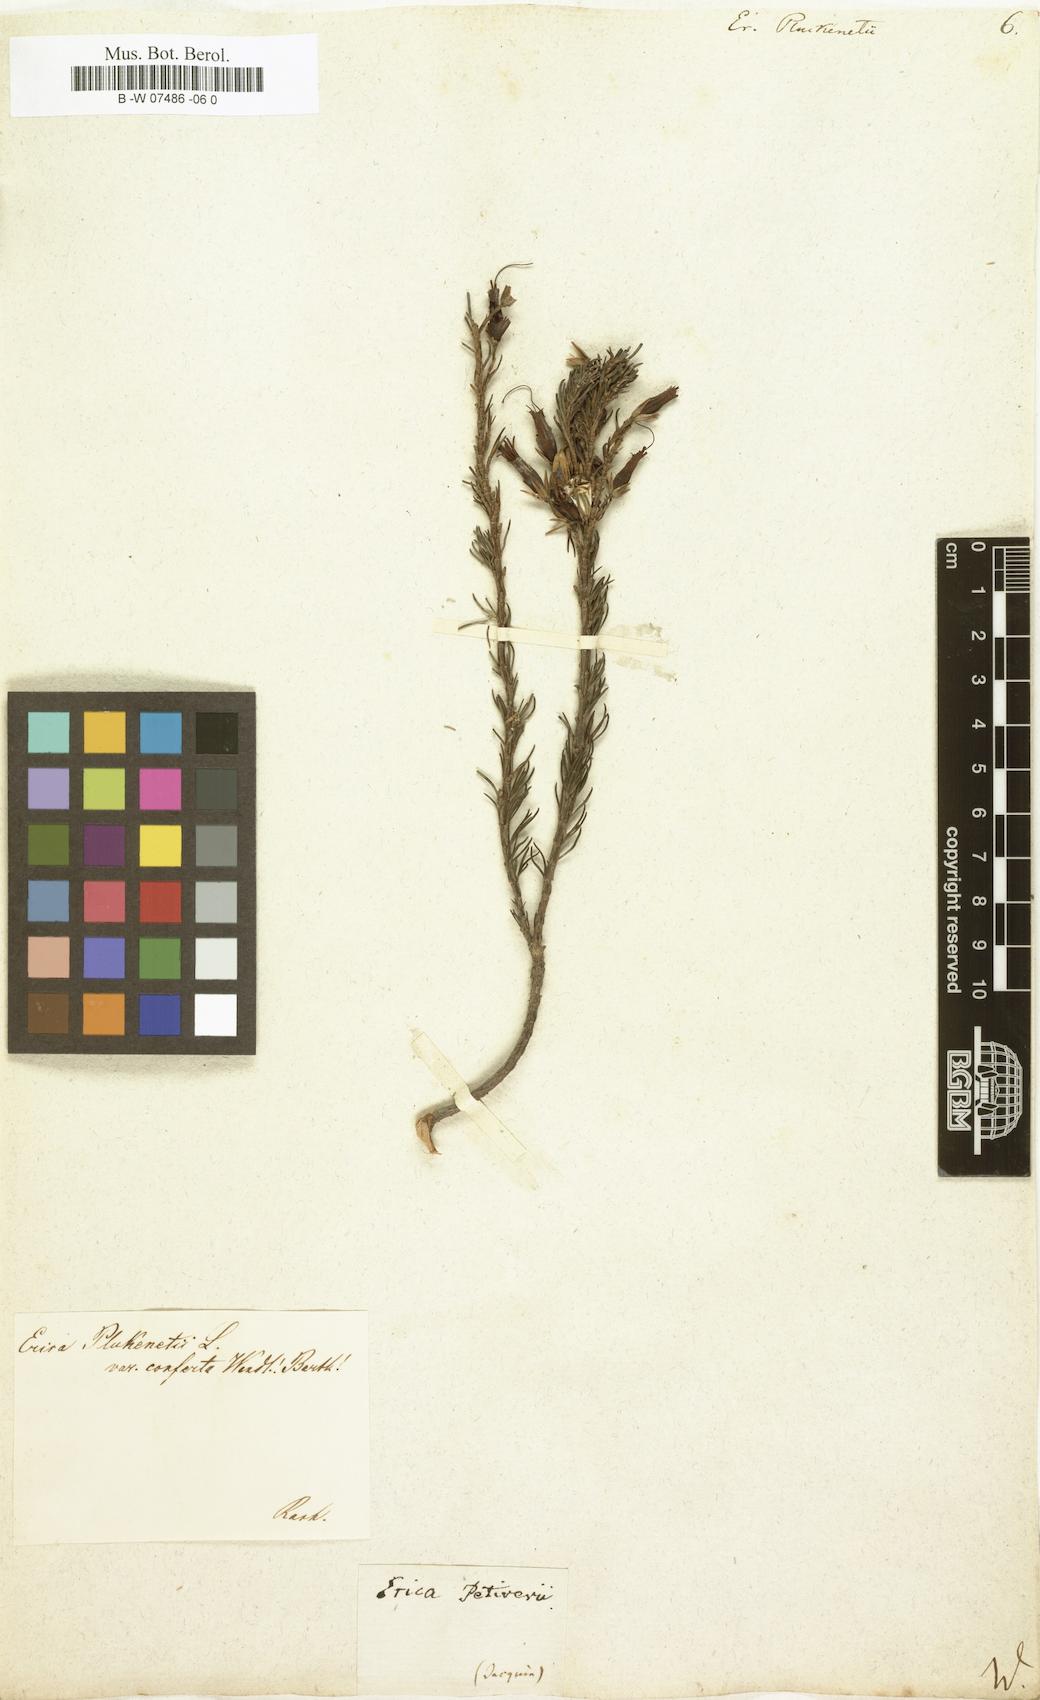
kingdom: Plantae
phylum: Tracheophyta
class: Magnoliopsida
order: Ericales
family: Ericaceae
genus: Erica
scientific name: Erica plukenetii
